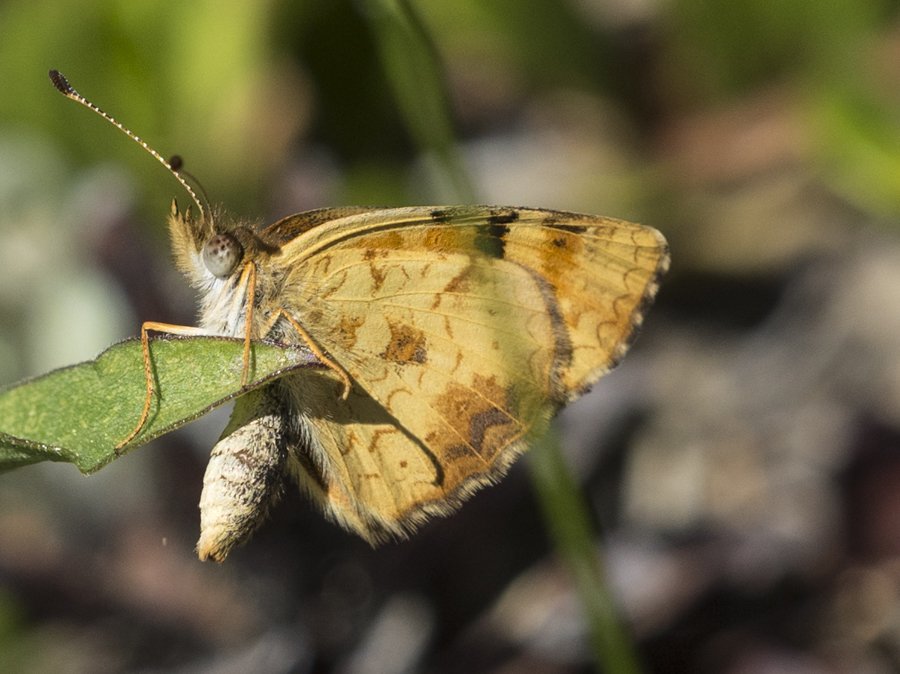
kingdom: Animalia
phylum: Arthropoda
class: Insecta
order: Lepidoptera
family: Nymphalidae
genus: Phyciodes
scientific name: Phyciodes tharos
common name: Field Crescent
